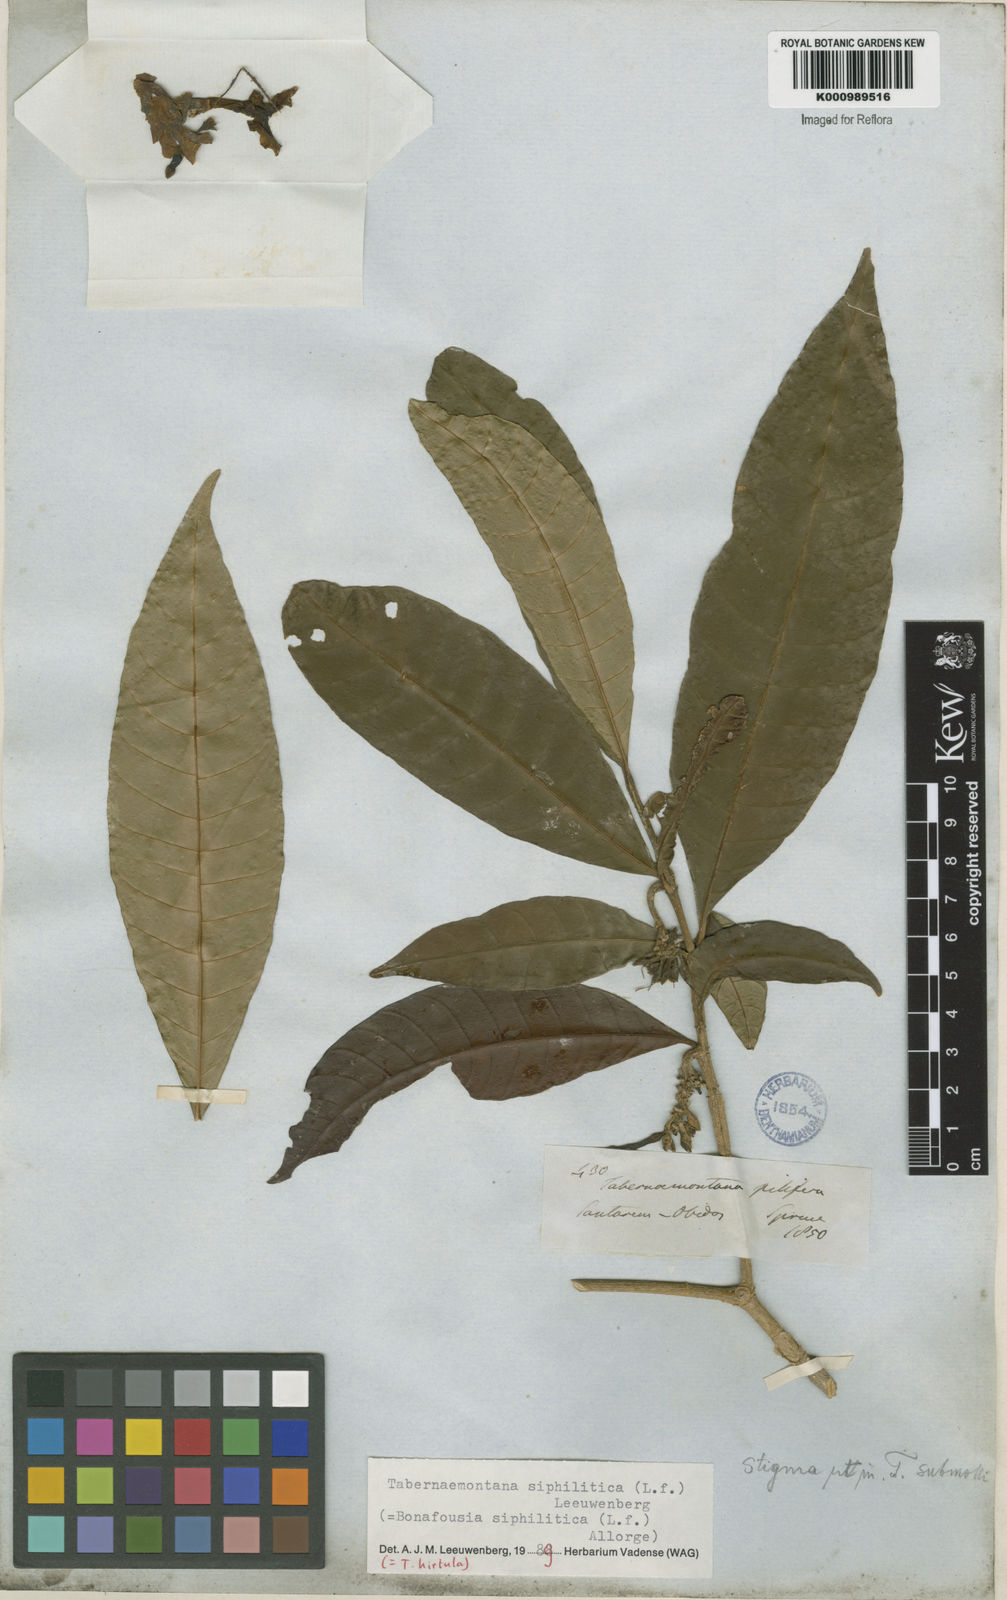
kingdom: Plantae
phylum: Tracheophyta
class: Magnoliopsida
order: Gentianales
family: Apocynaceae
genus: Tabernaemontana
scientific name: Tabernaemontana siphilitica
